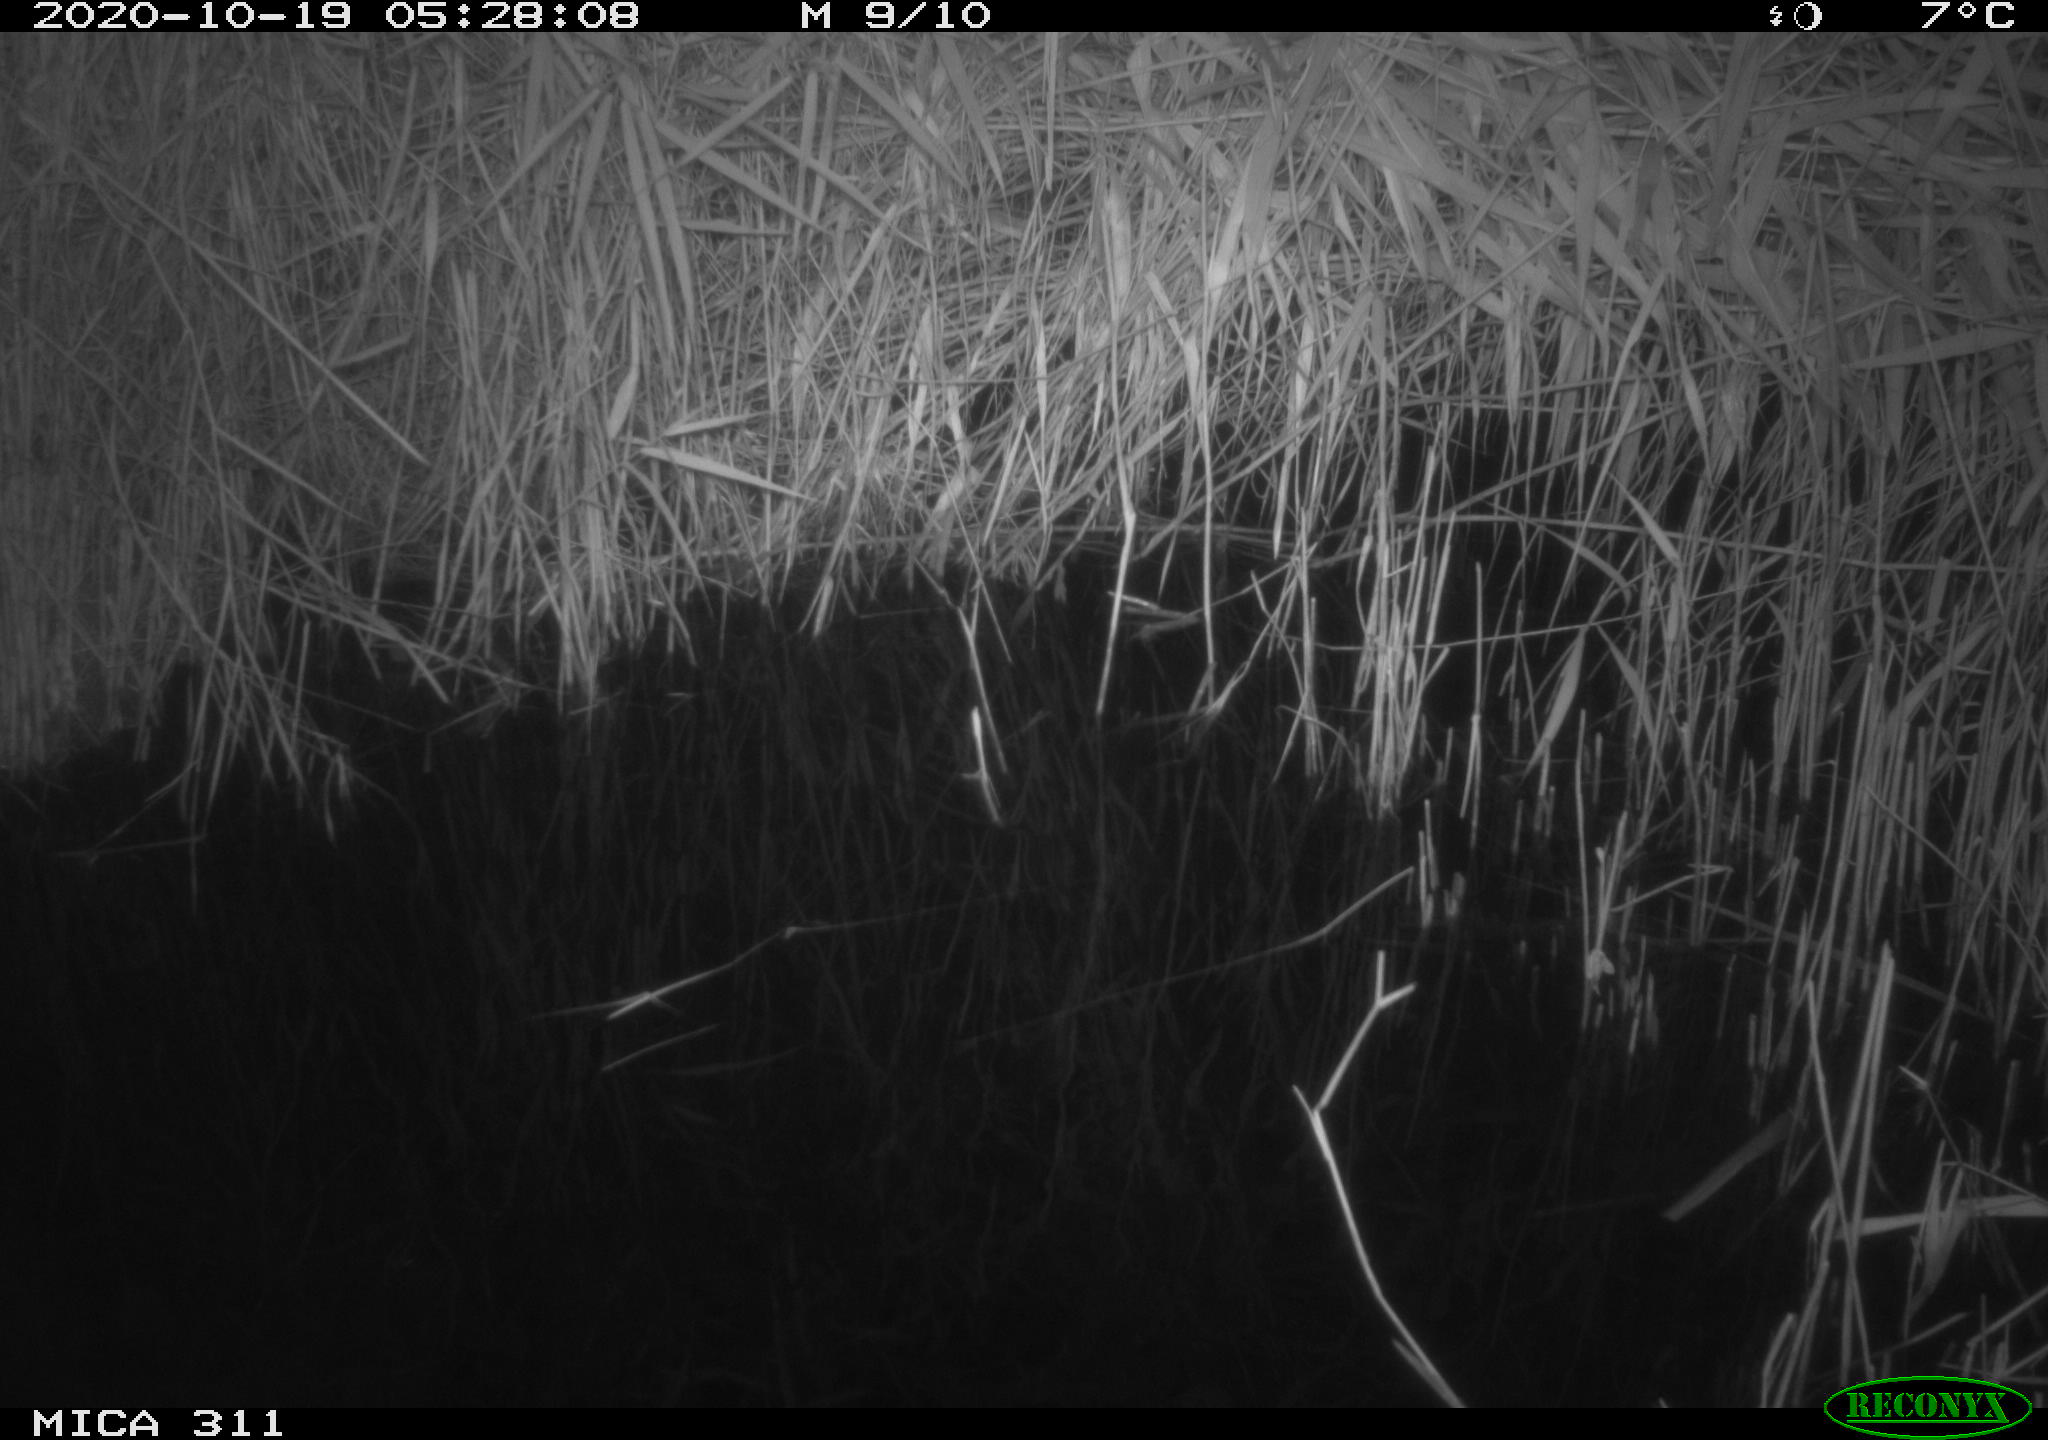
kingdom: Animalia
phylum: Chordata
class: Mammalia
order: Rodentia
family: Muridae
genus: Rattus
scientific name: Rattus norvegicus
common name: Brown rat
